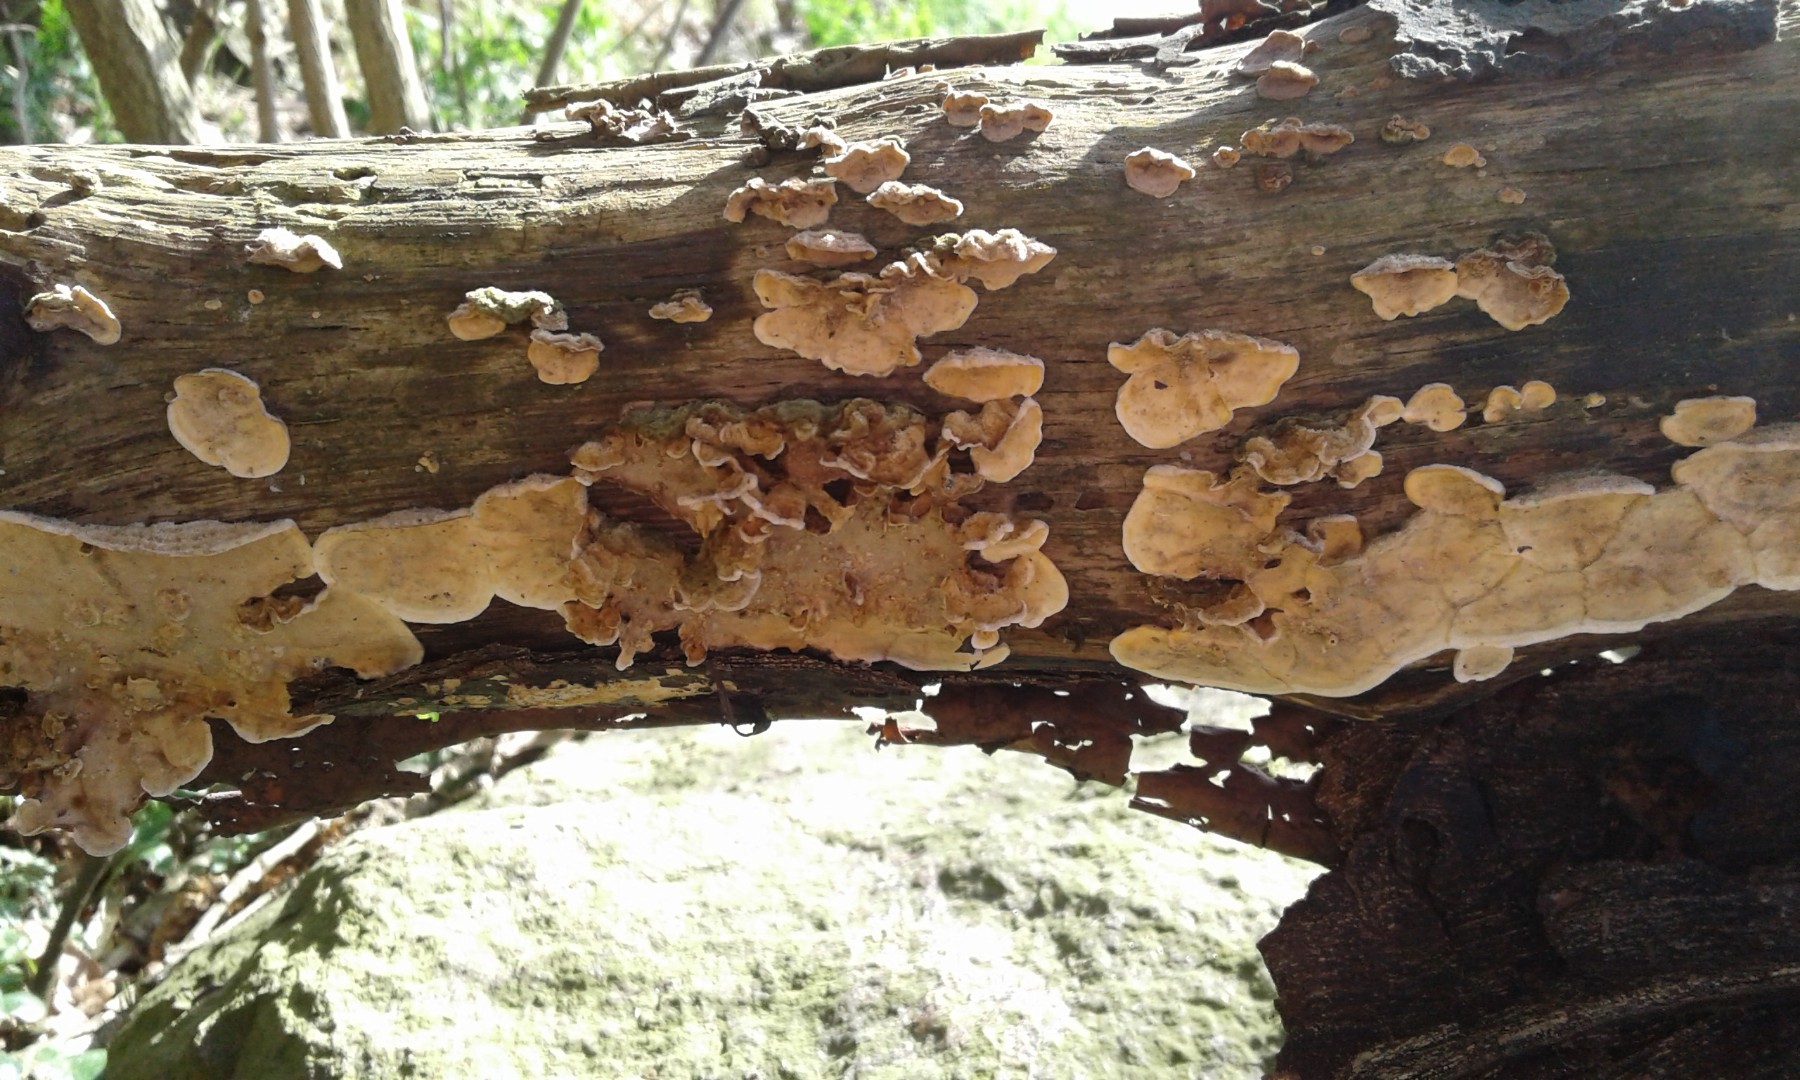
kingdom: Fungi
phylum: Basidiomycota
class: Agaricomycetes
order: Russulales
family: Stereaceae
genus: Stereum
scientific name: Stereum hirsutum
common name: håret lædersvamp
